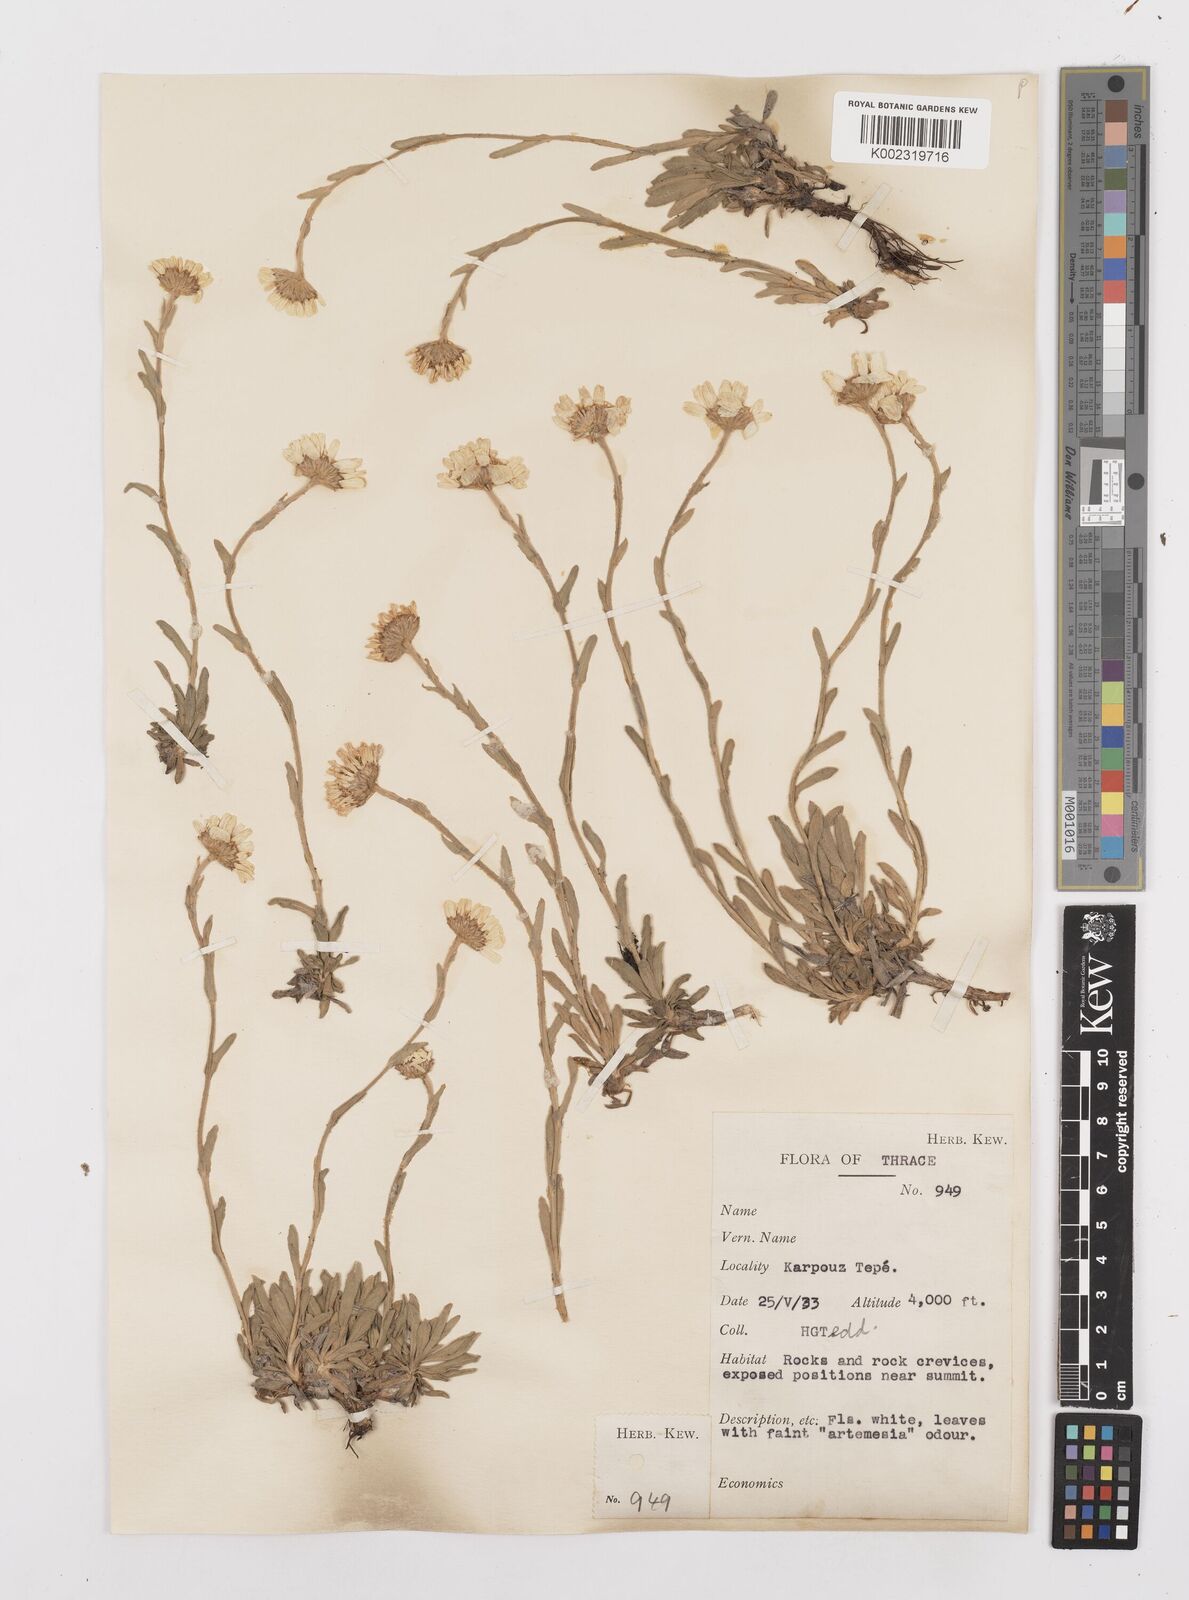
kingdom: Plantae
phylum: Tracheophyta
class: Magnoliopsida
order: Asterales
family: Asteraceae
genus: Achillea
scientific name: Achillea
